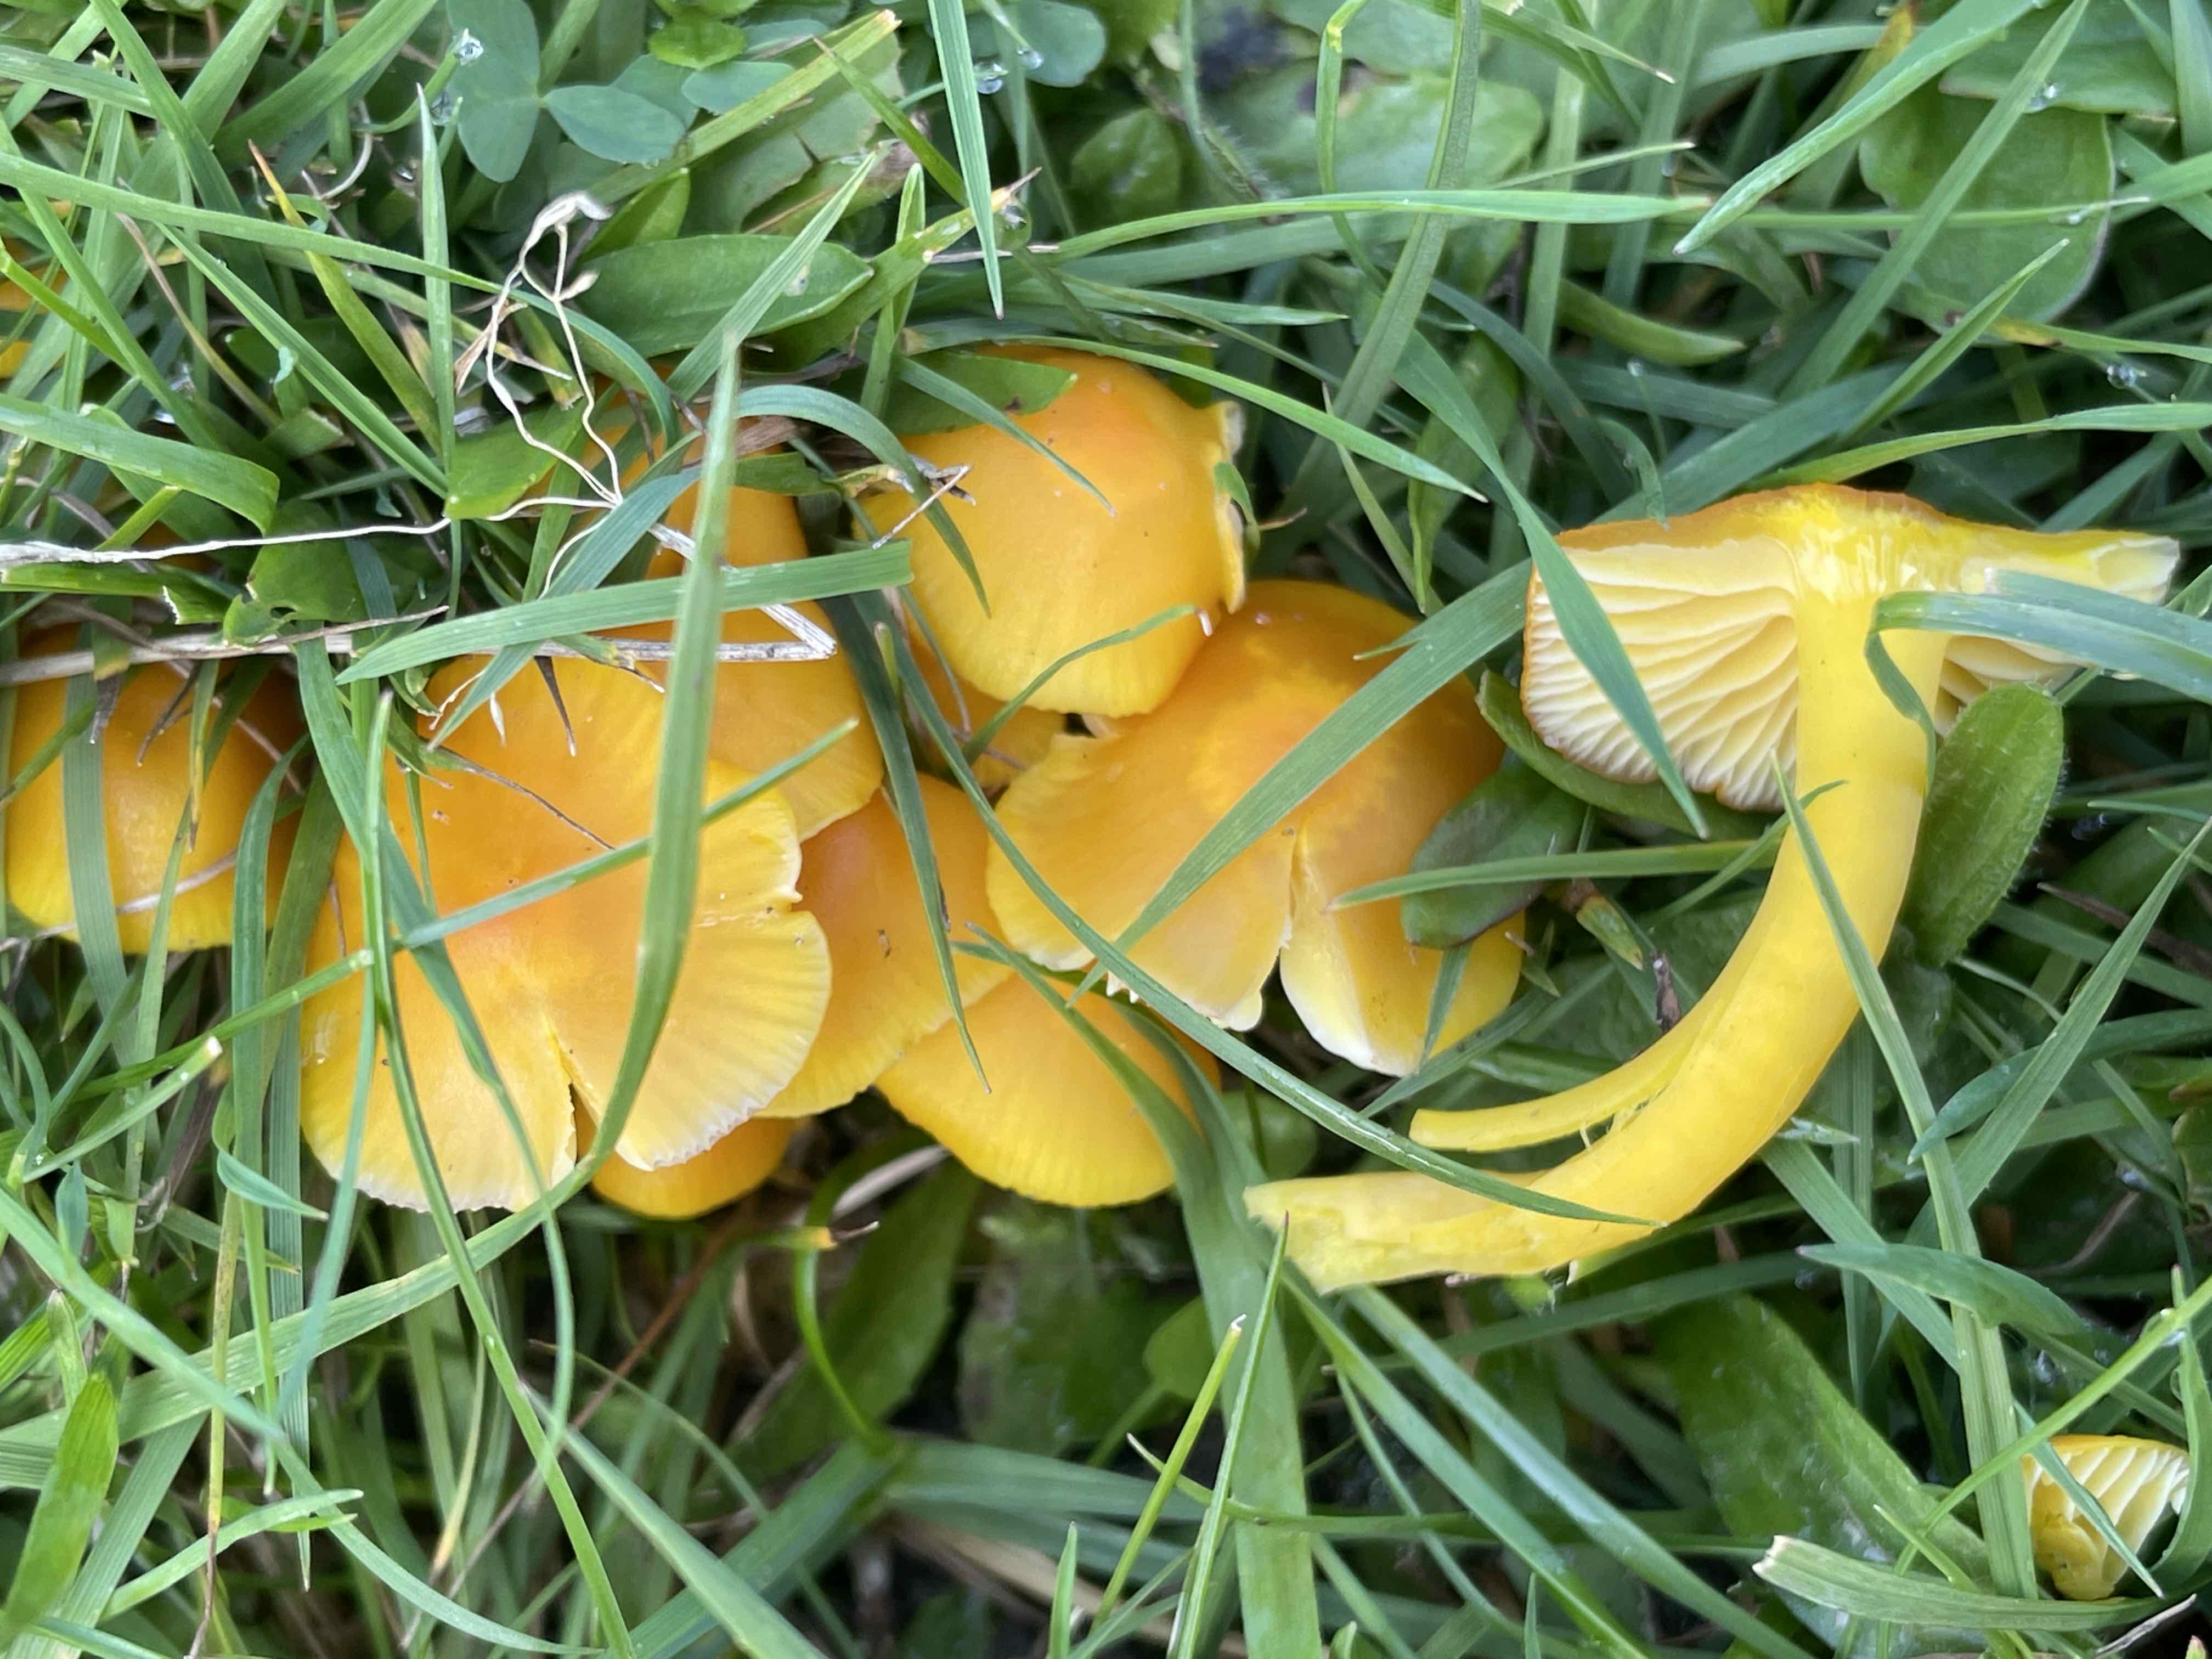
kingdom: Fungi
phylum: Basidiomycota
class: Agaricomycetes
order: Agaricales
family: Hygrophoraceae
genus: Hygrocybe
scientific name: Hygrocybe ceracea
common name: voksgul vokshat
